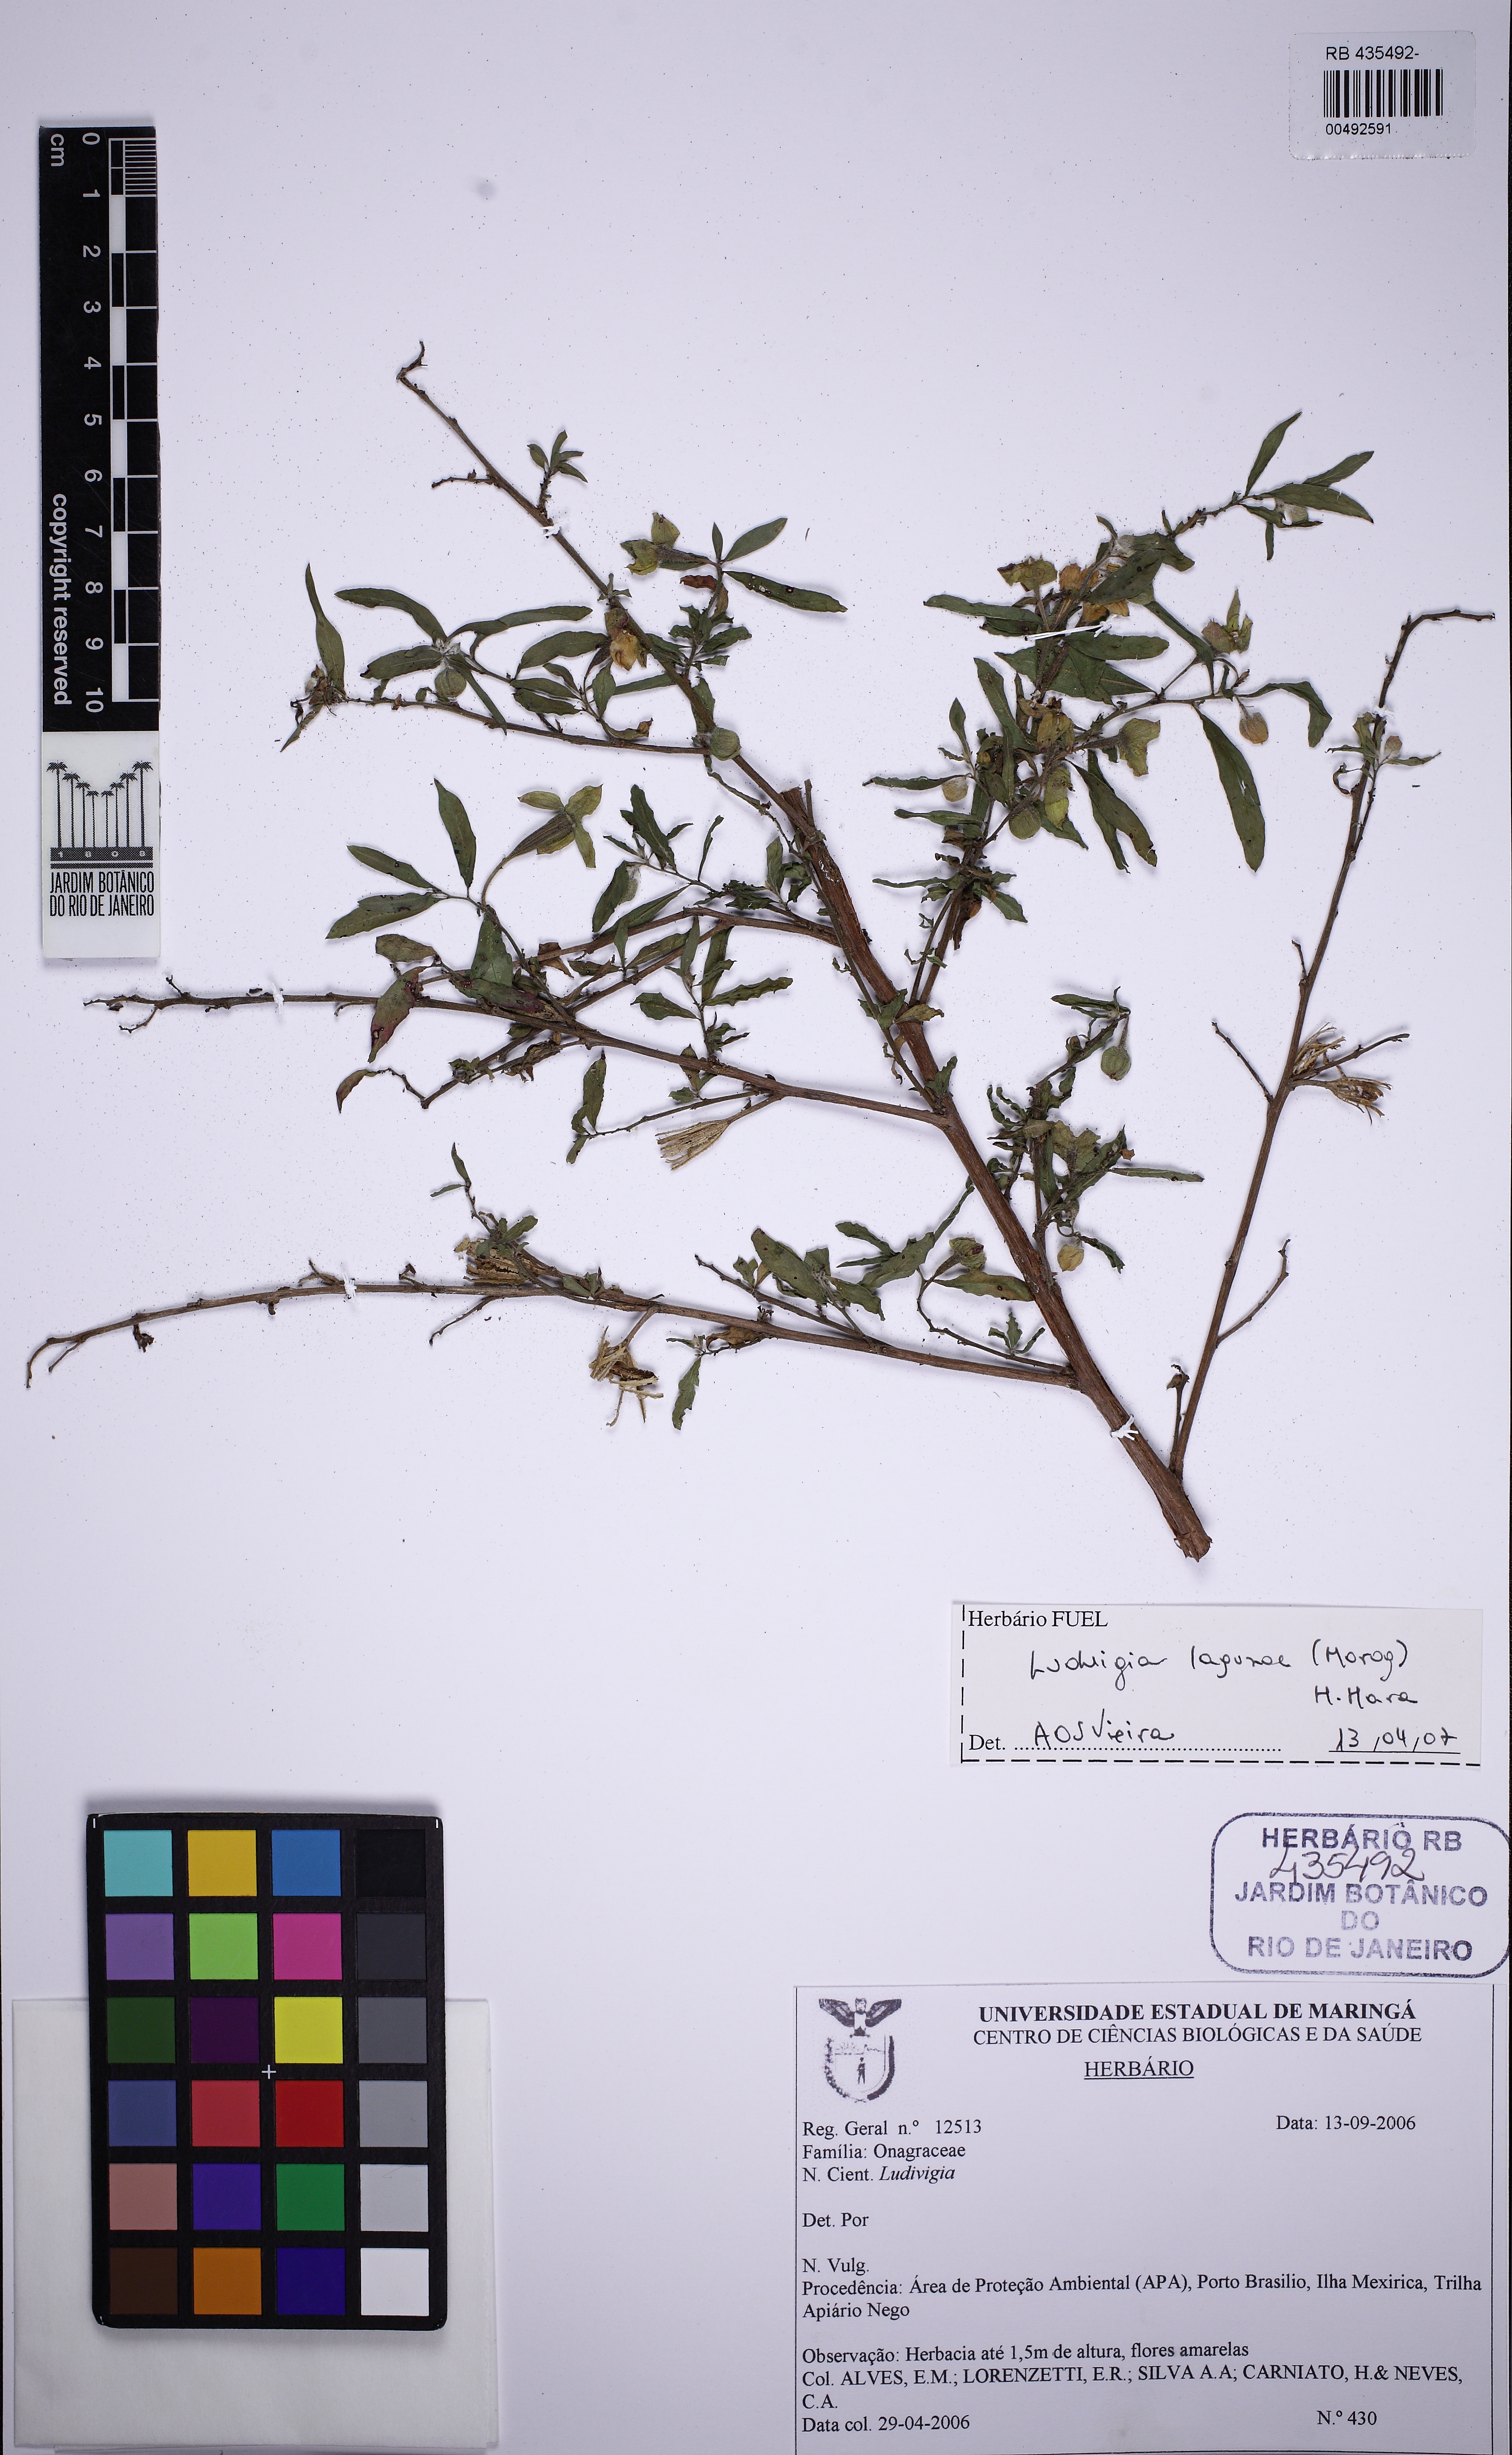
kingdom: Plantae
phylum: Tracheophyta
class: Magnoliopsida
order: Myrtales
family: Onagraceae
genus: Ludwigia
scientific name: Ludwigia lagunae
